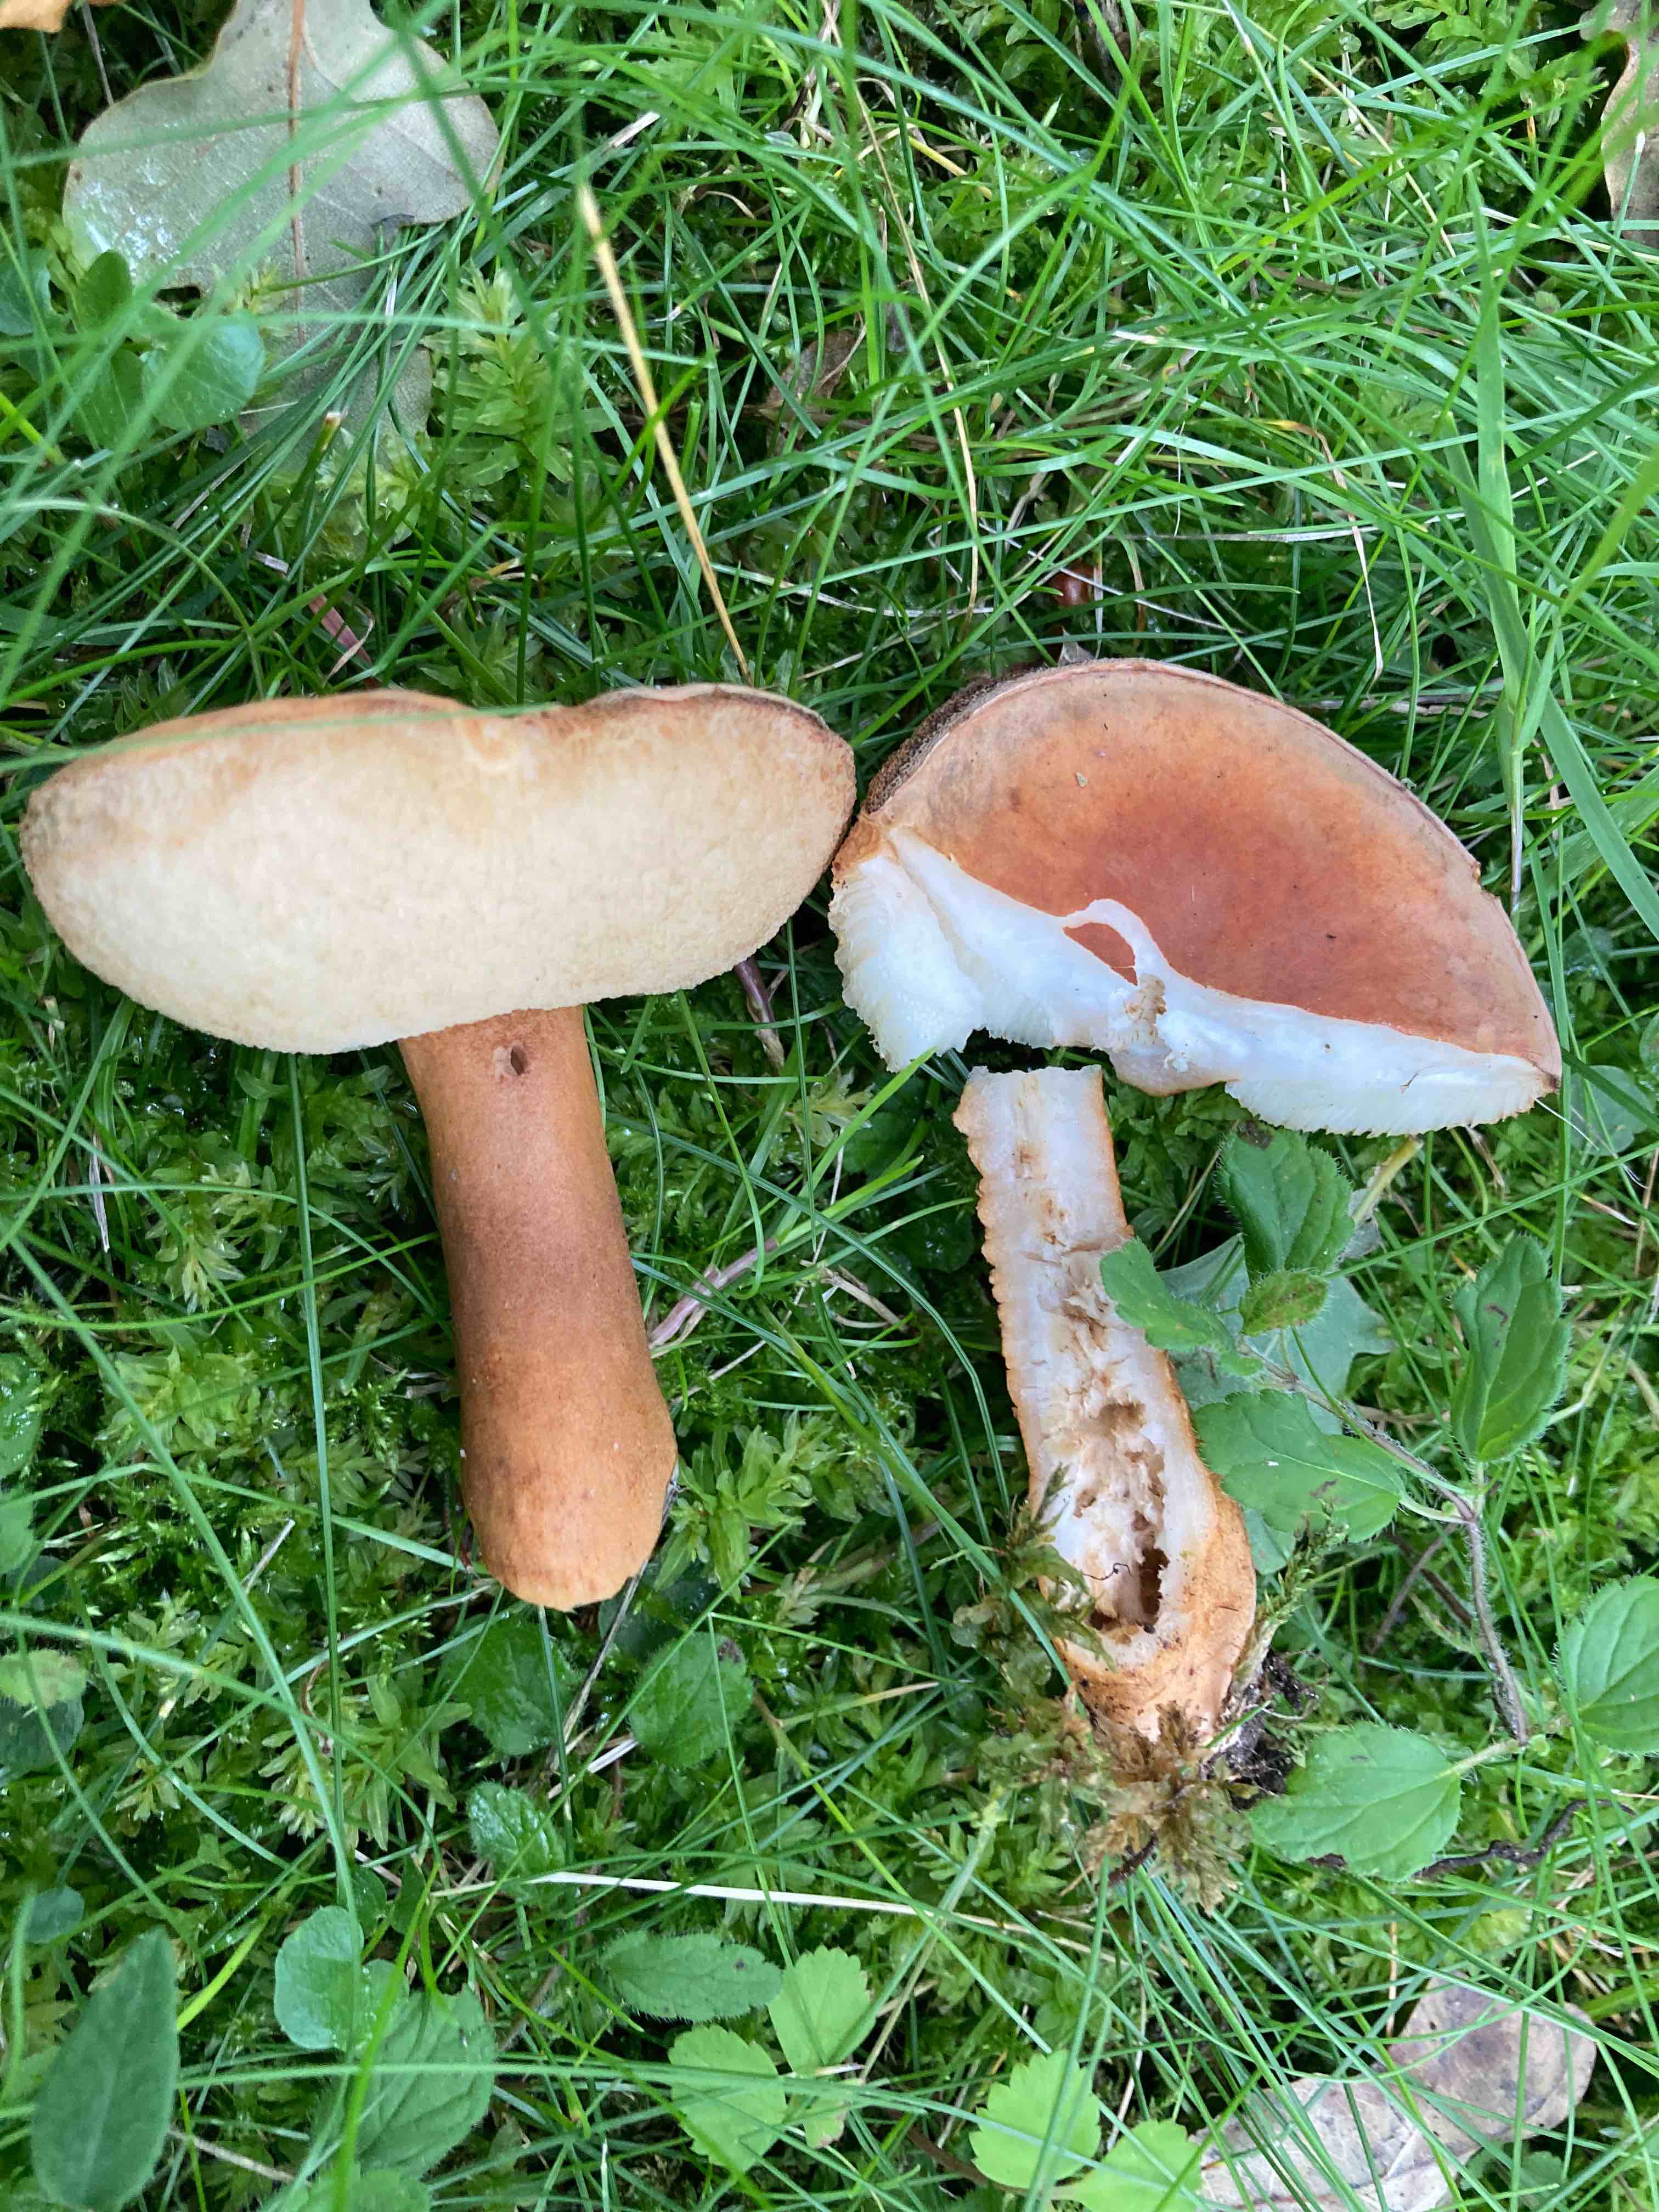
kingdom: Fungi
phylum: Basidiomycota
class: Agaricomycetes
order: Boletales
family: Gyroporaceae
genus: Gyroporus
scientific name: Gyroporus castaneus
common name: kastanie-kammerrørhat
